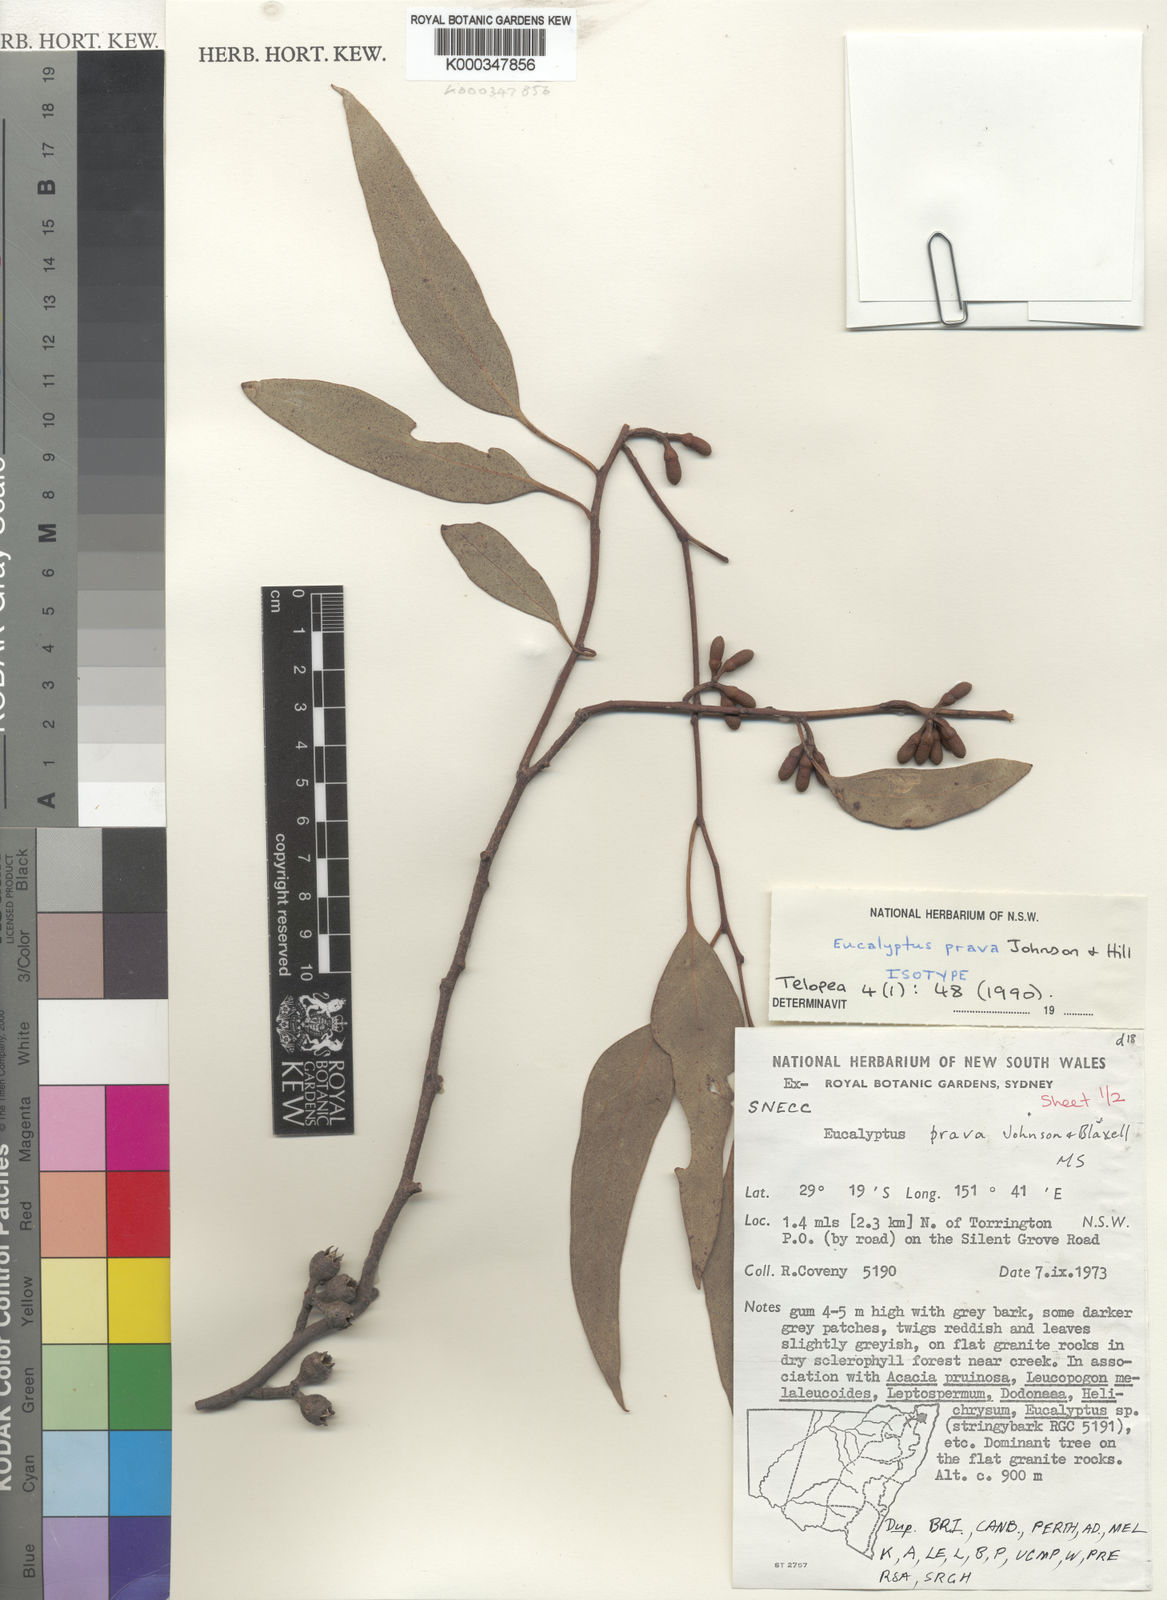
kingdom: Plantae
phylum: Tracheophyta
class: Magnoliopsida
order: Myrtales
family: Myrtaceae
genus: Eucalyptus
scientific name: Eucalyptus prava
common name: Orange gum
